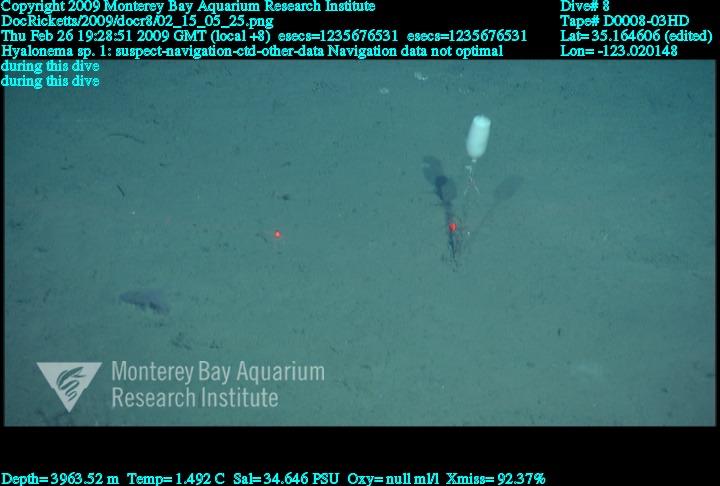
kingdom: Animalia
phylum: Porifera
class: Hexactinellida
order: Amphidiscosida
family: Hyalonematidae
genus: Hyalonema
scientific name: Hyalonema
